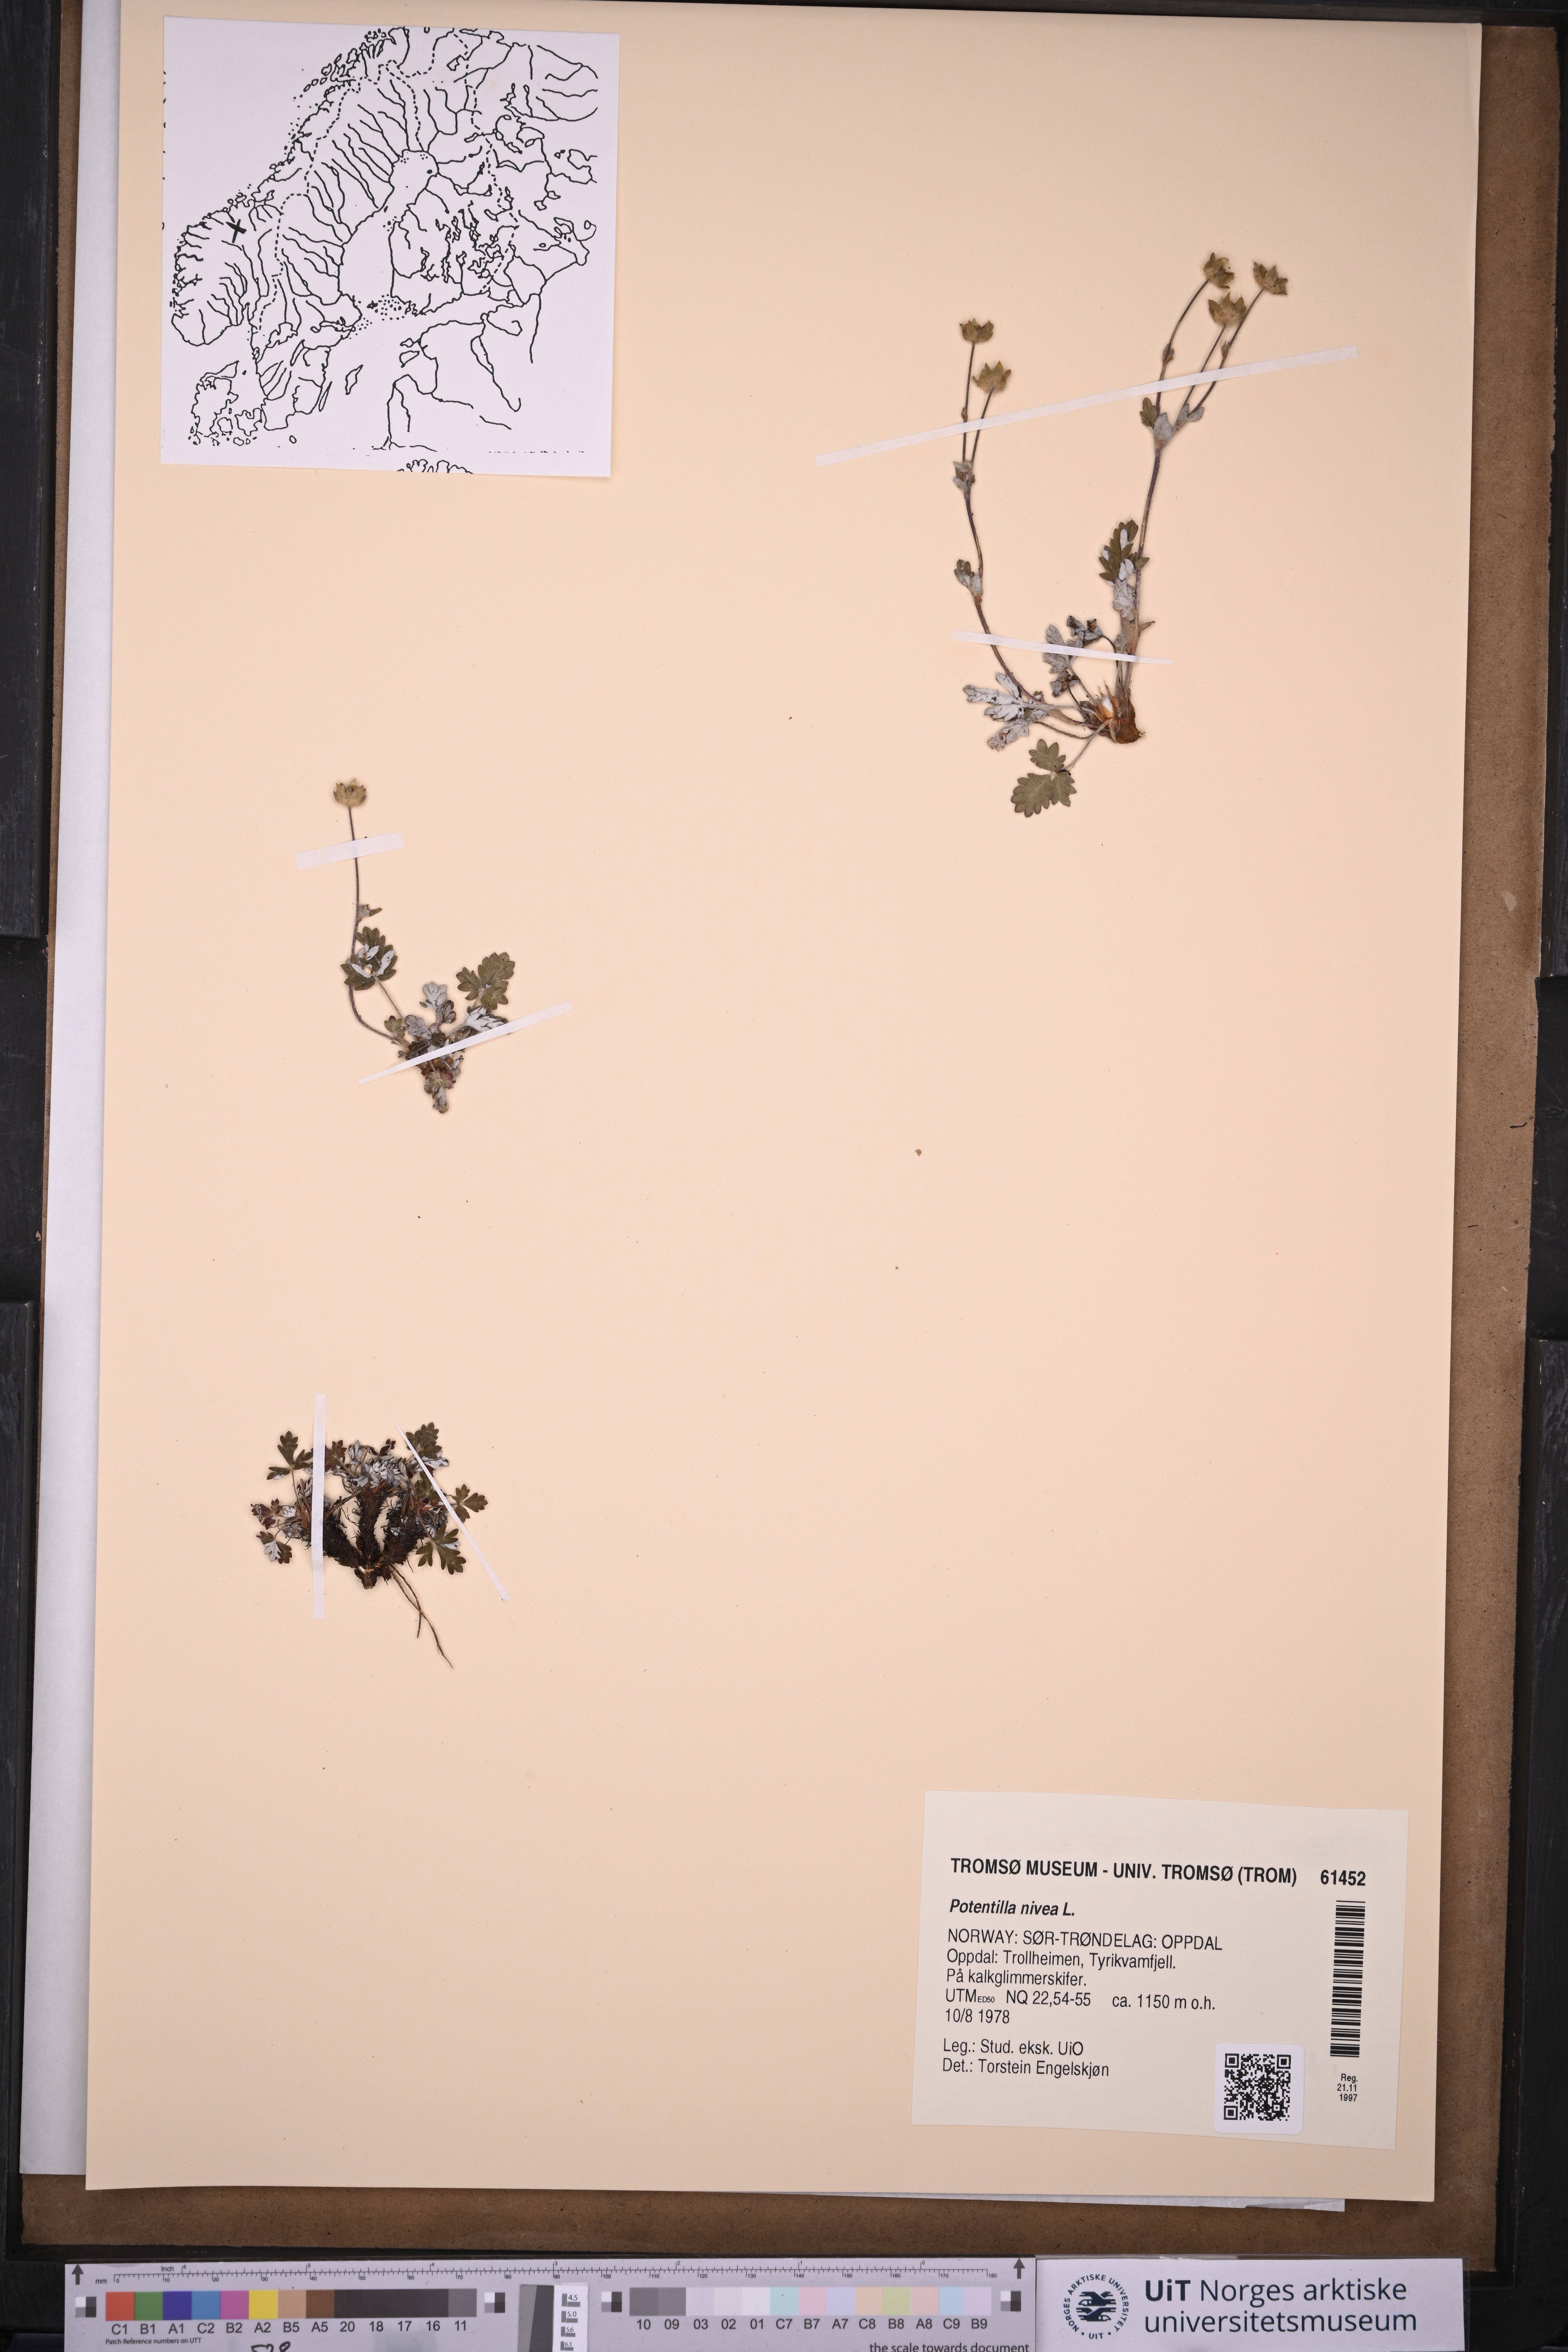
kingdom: Plantae
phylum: Tracheophyta
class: Magnoliopsida
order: Rosales
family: Rosaceae
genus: Potentilla
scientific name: Potentilla arenosa
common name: Bluff cinquefoil
